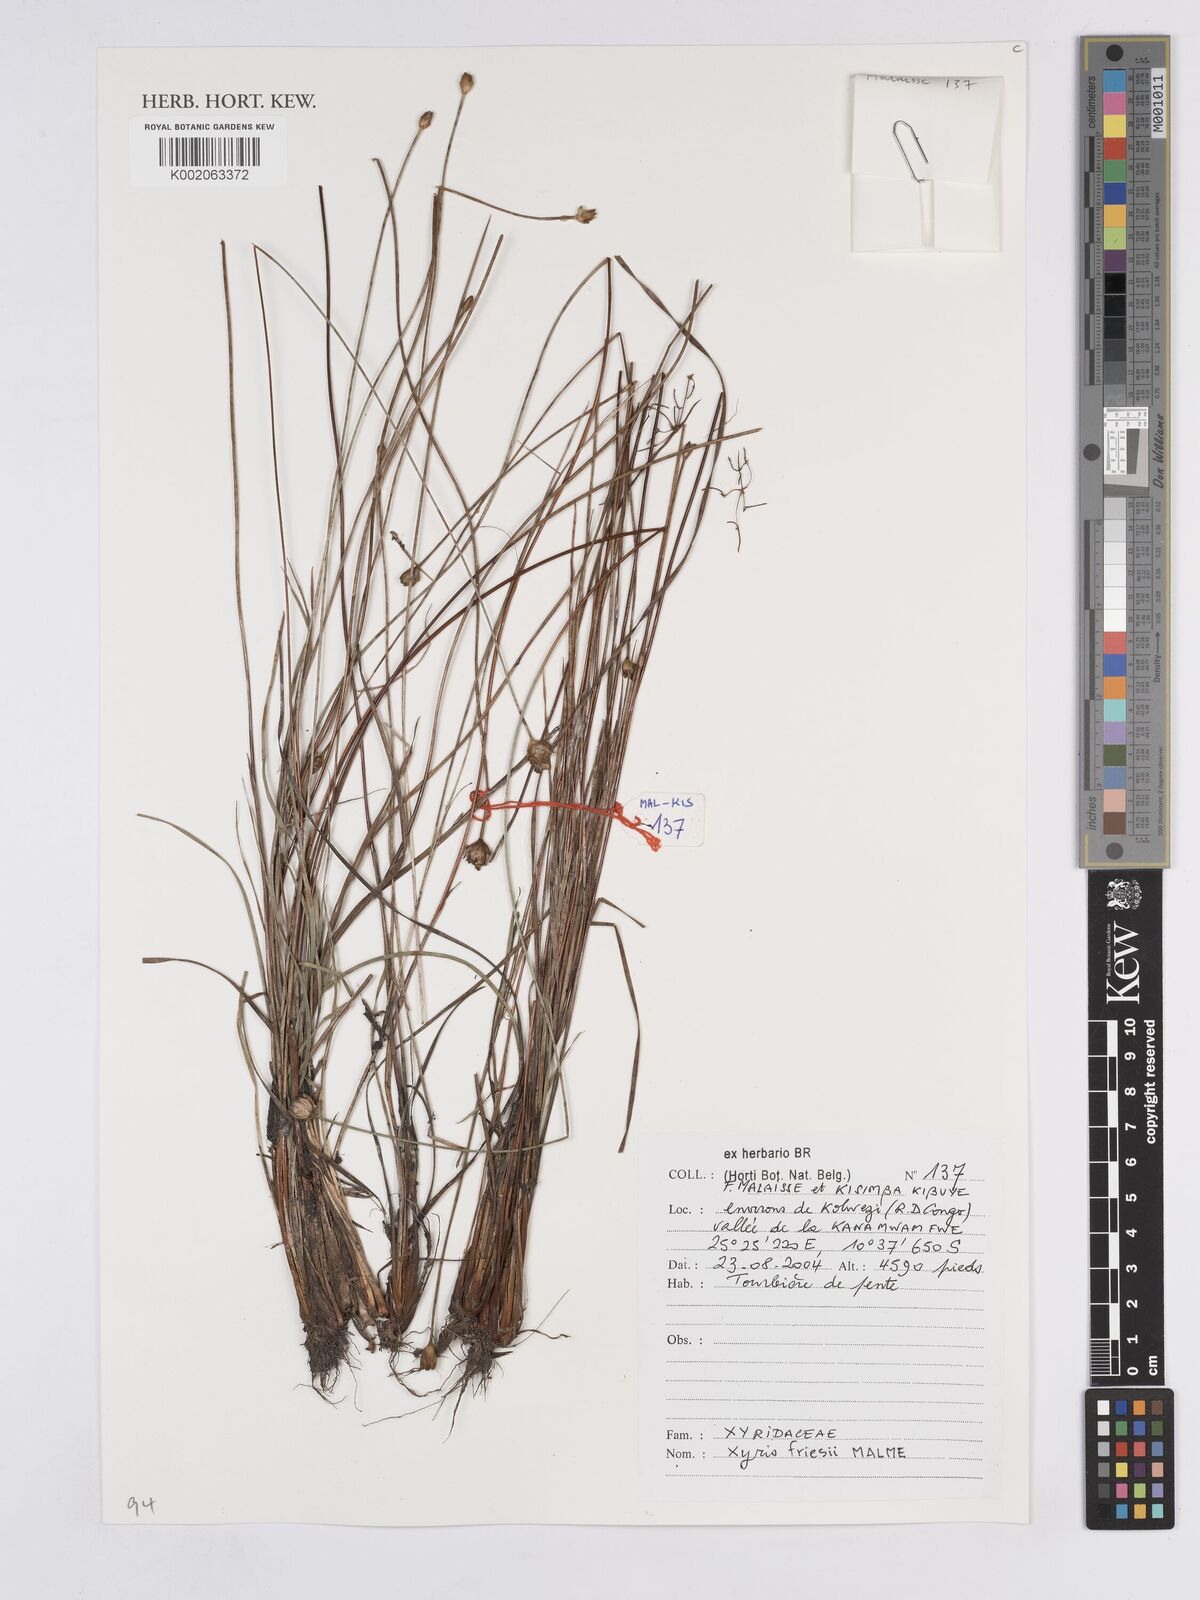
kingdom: Plantae
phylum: Tracheophyta
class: Liliopsida
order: Poales
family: Xyridaceae
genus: Xyris
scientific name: Xyris friesii
